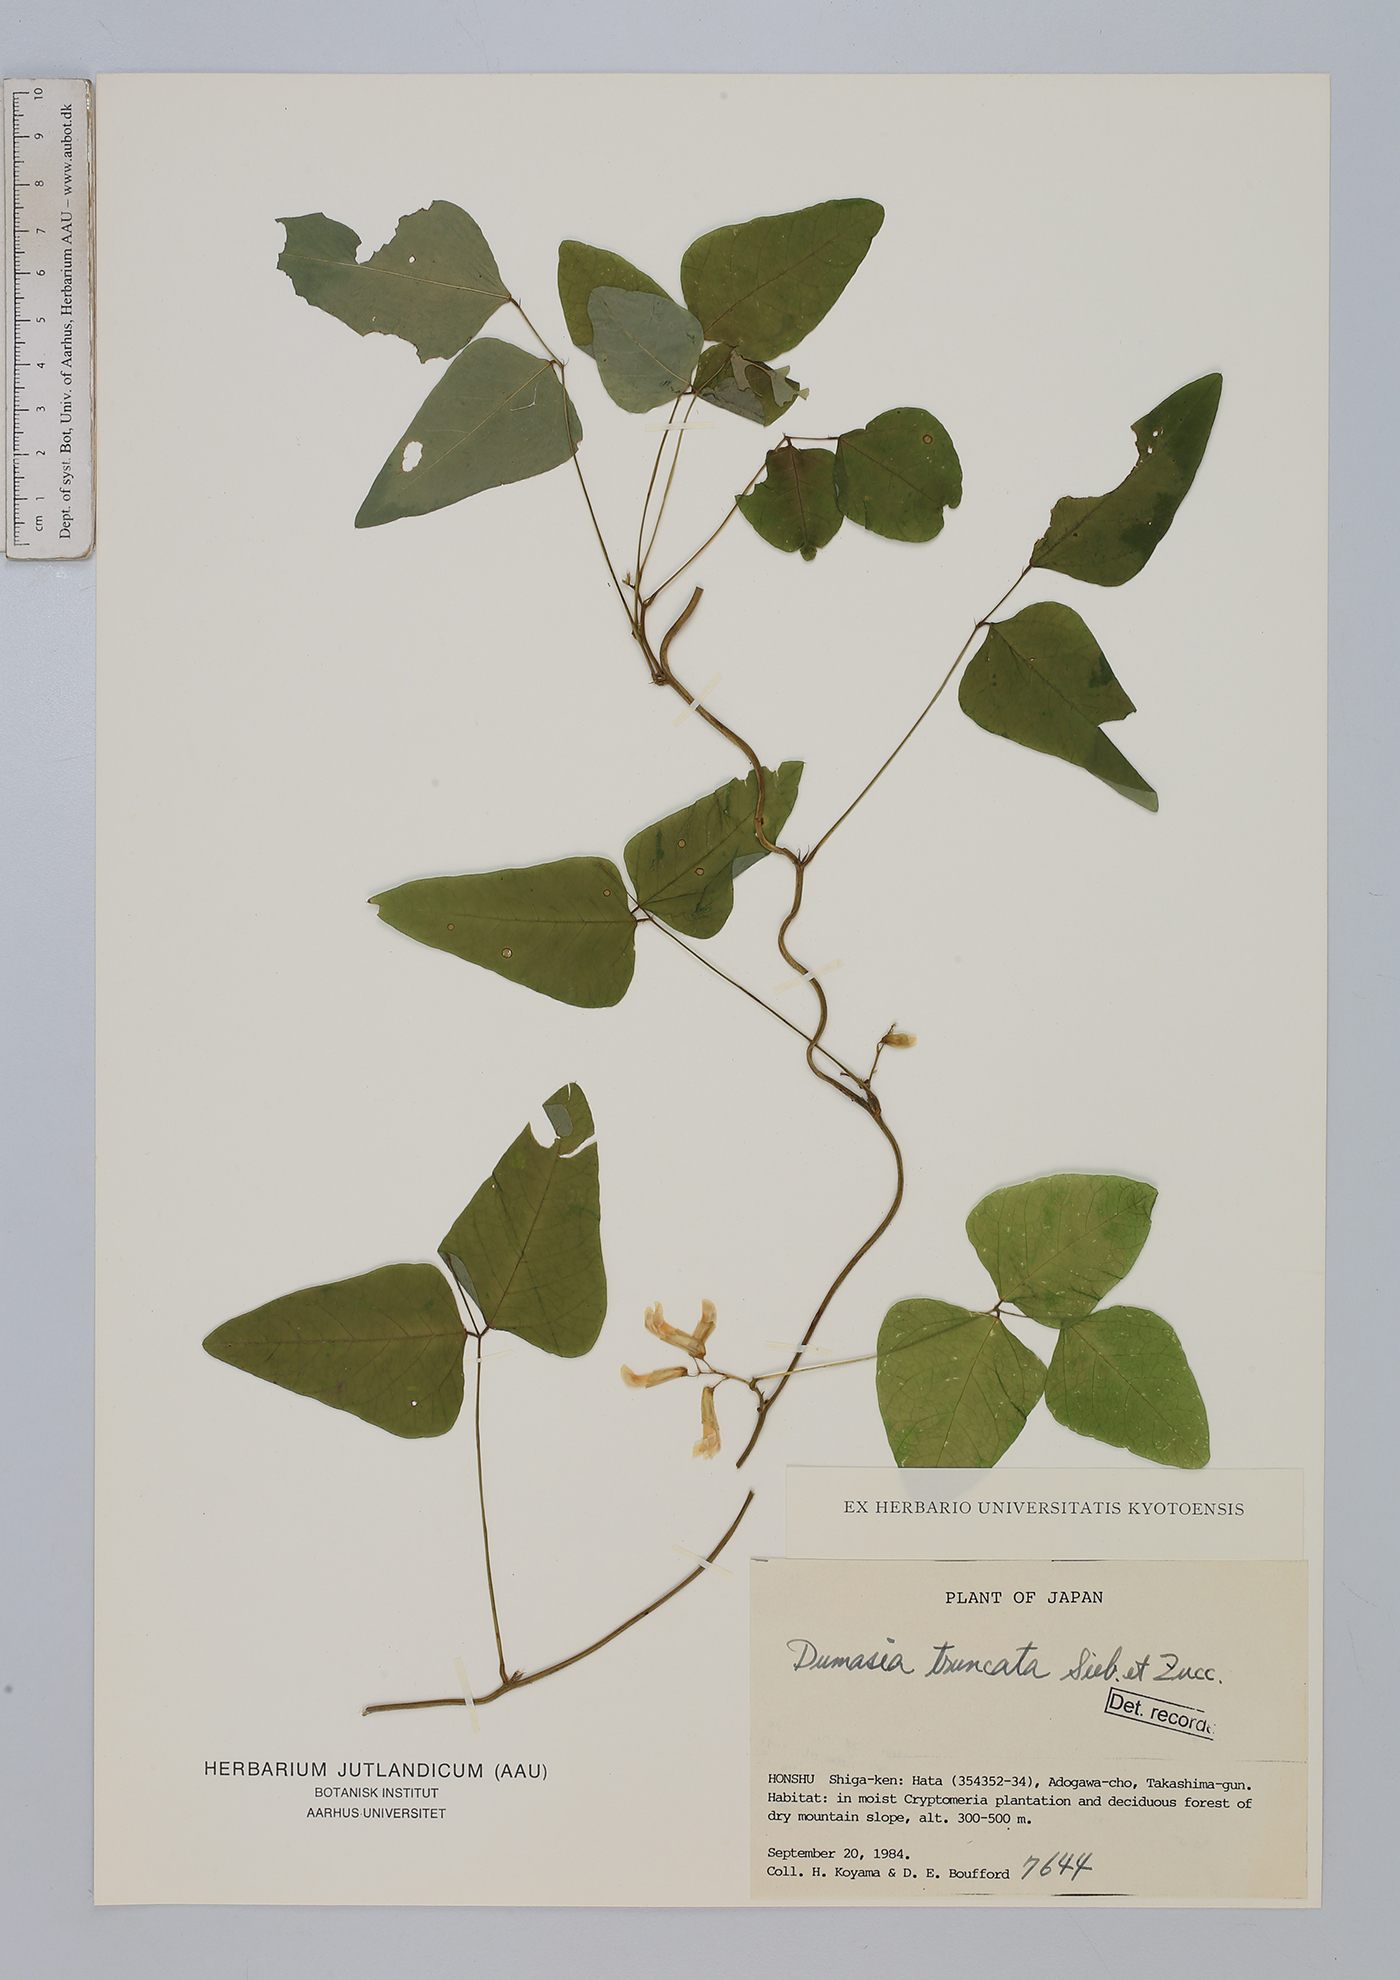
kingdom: Plantae
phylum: Tracheophyta
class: Magnoliopsida
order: Fabales
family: Fabaceae
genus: Dumasia
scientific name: Dumasia truncata
